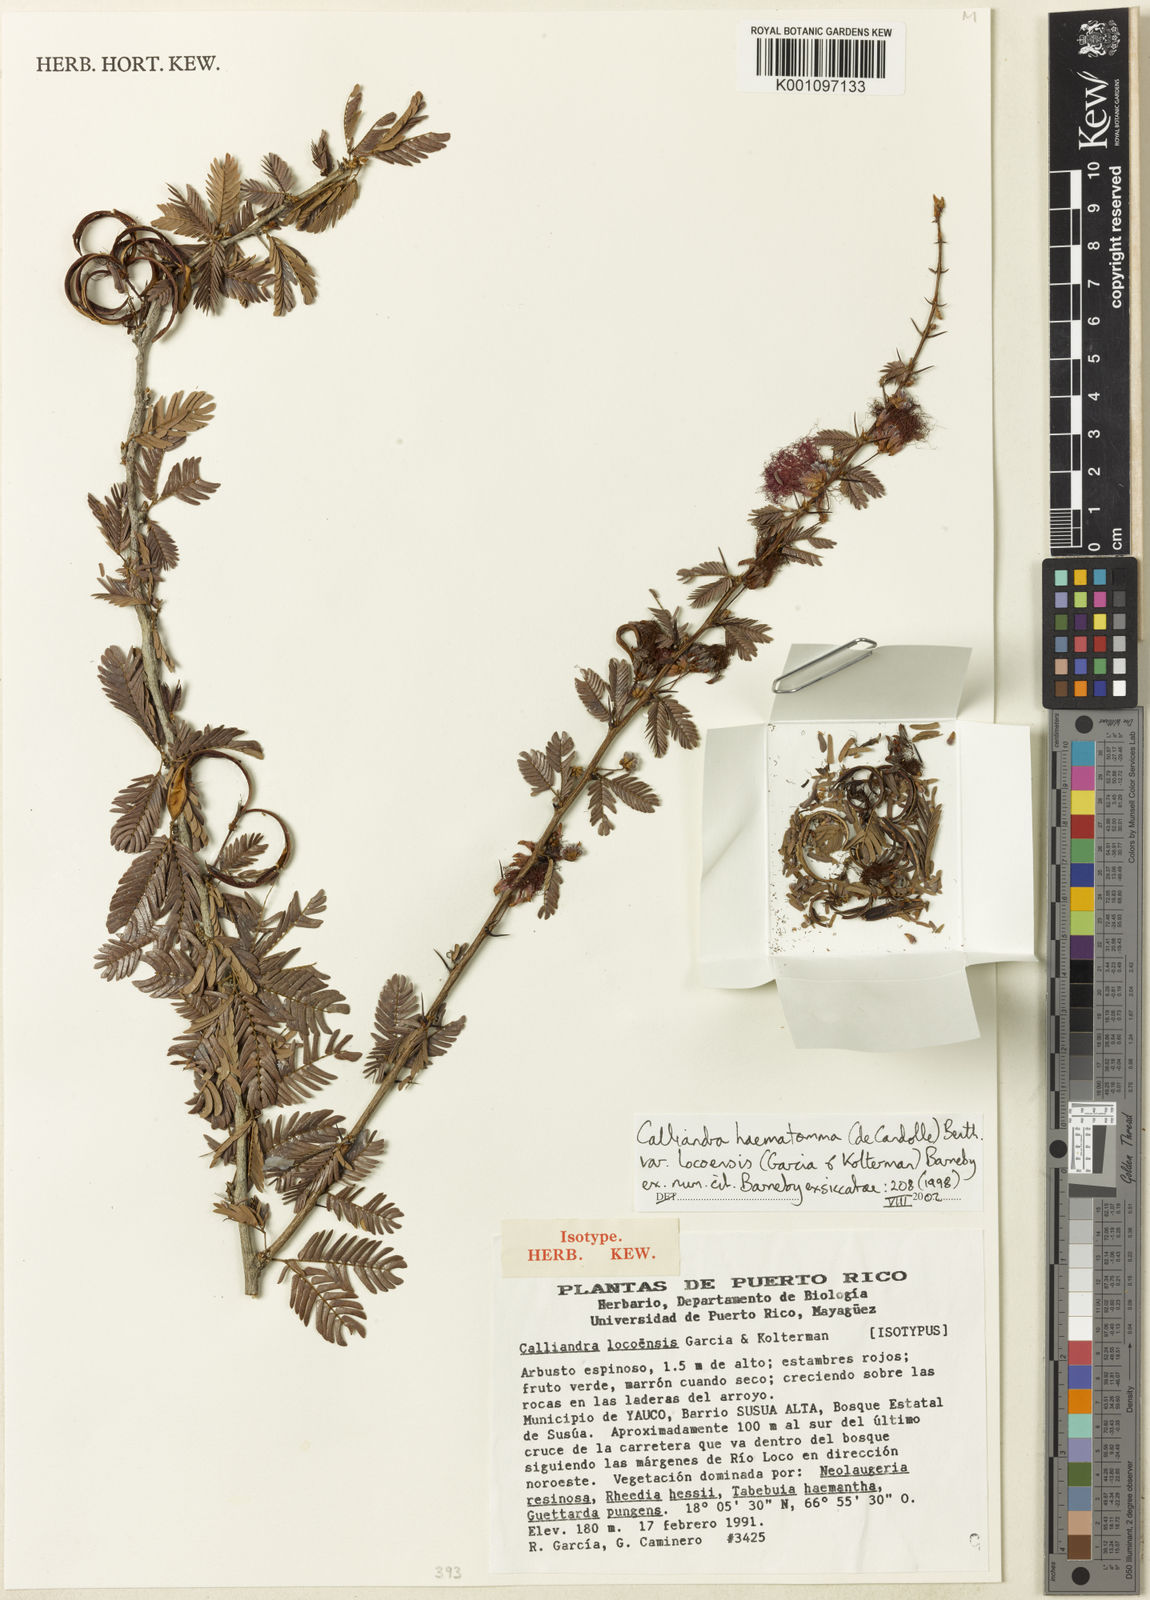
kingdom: Plantae
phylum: Tracheophyta
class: Magnoliopsida
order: Fabales
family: Fabaceae
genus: Calliandra
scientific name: Calliandra haematomma
